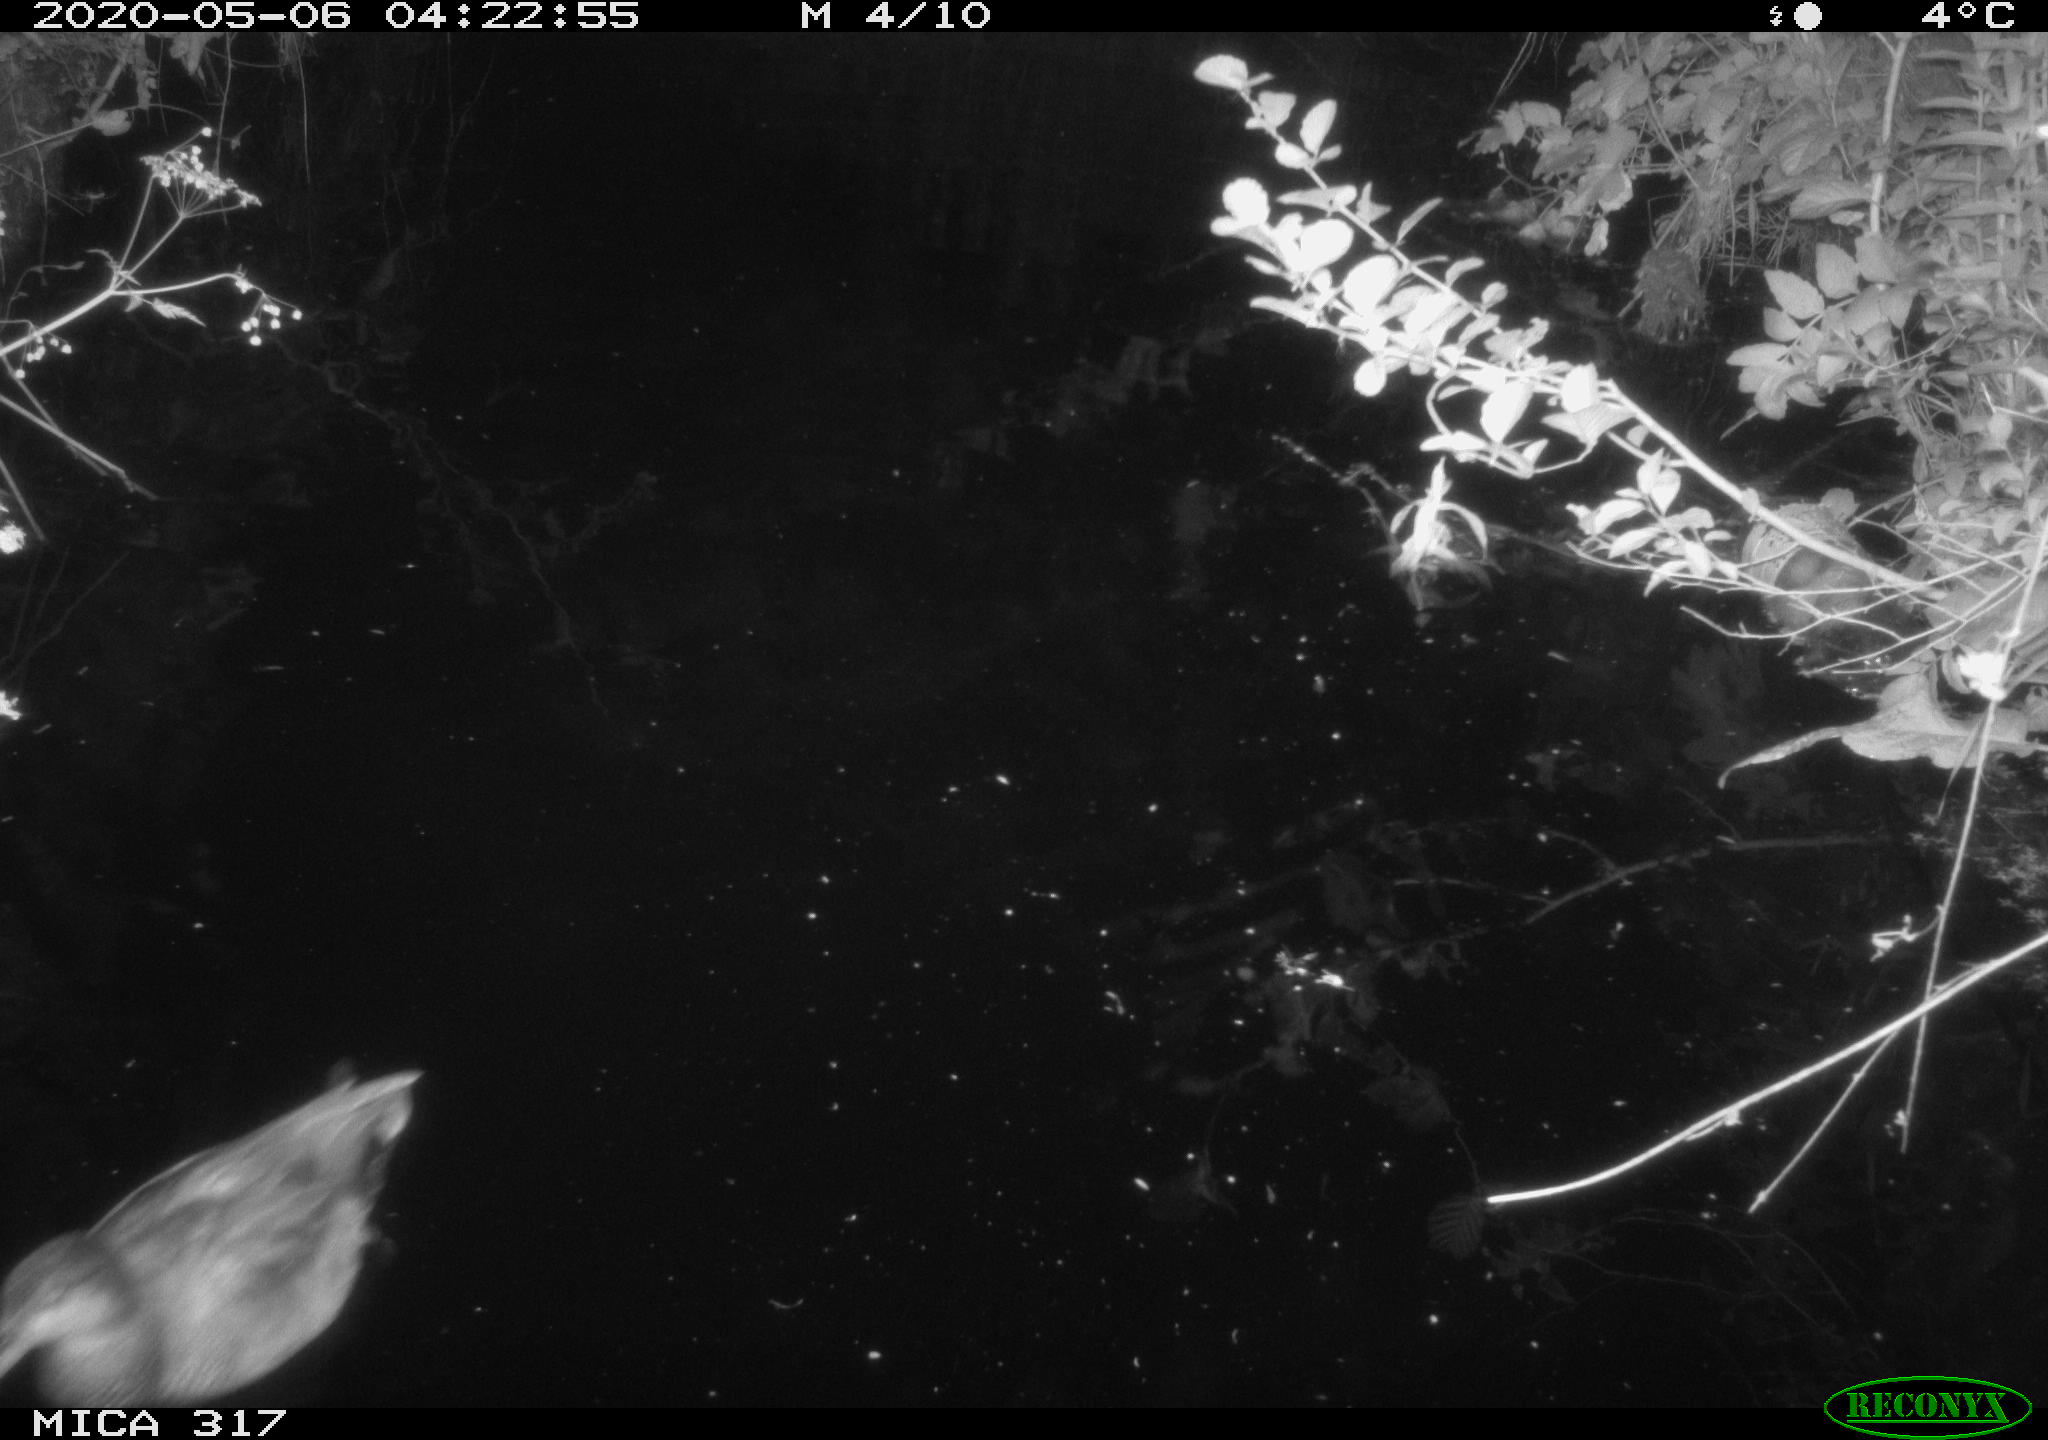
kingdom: Animalia
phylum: Chordata
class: Aves
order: Anseriformes
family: Anatidae
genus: Anas
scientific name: Anas platyrhynchos
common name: Mallard
